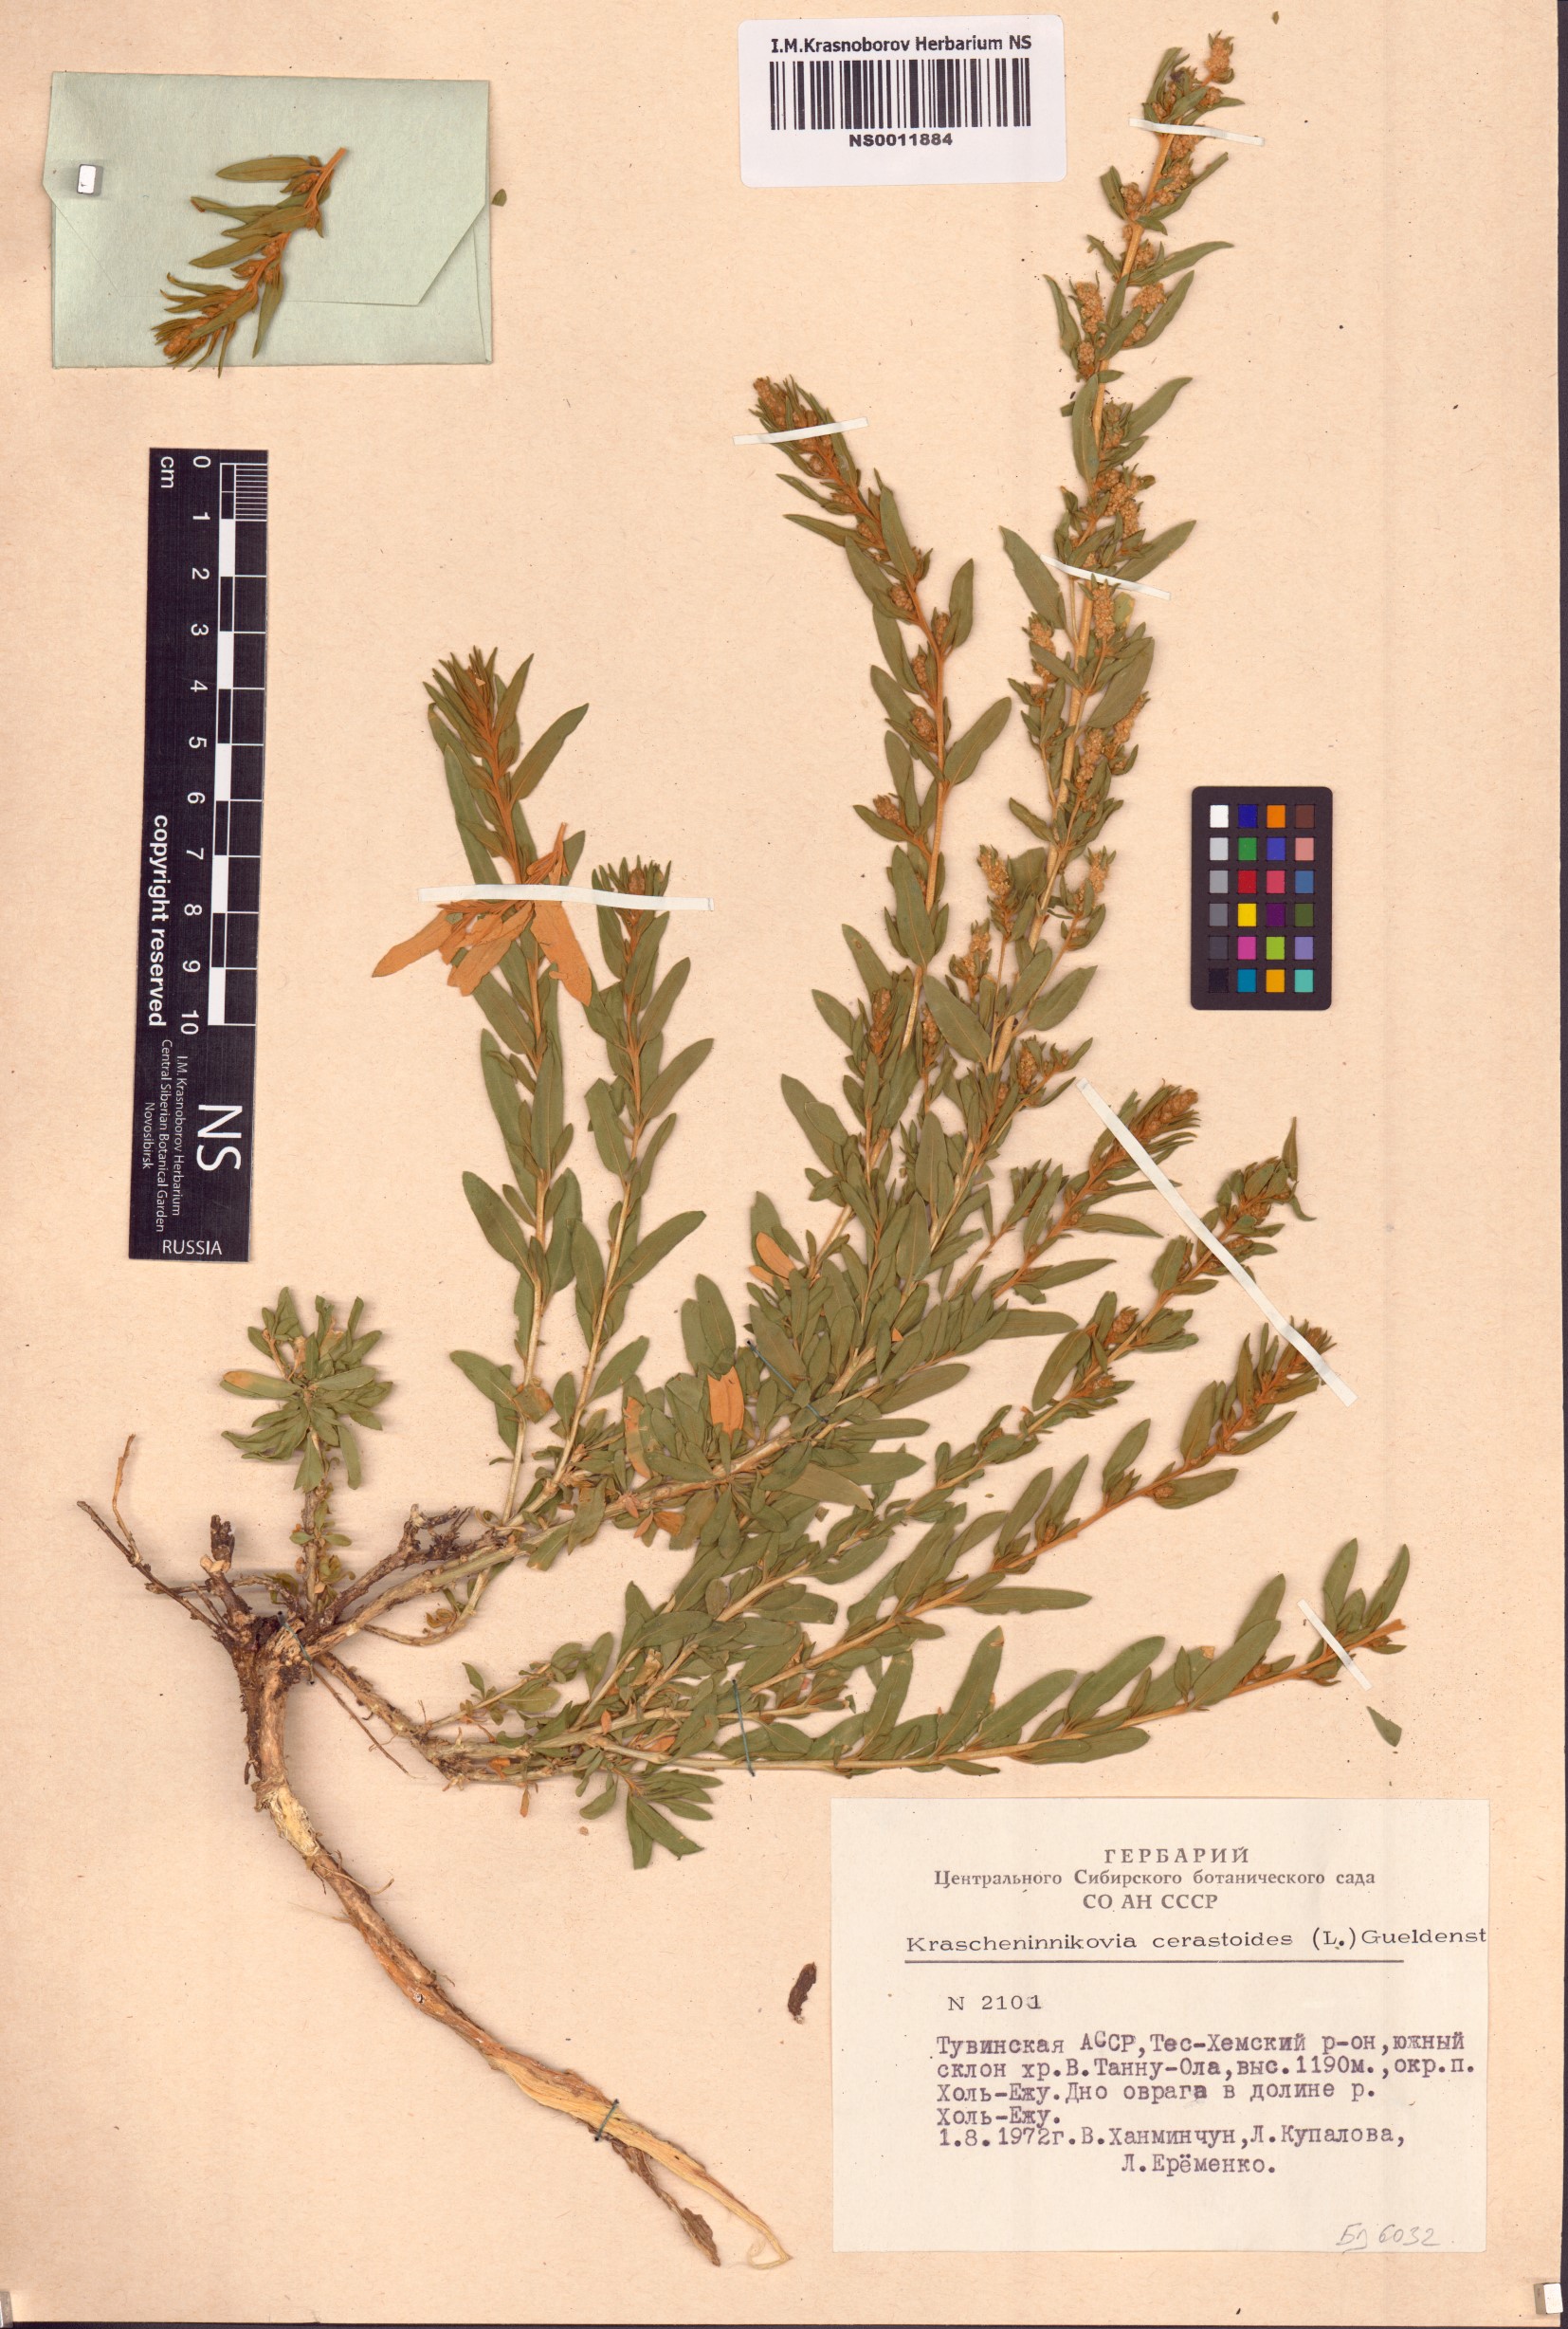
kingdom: Plantae
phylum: Tracheophyta
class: Magnoliopsida
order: Caryophyllales
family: Amaranthaceae
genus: Krascheninnikovia
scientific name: Krascheninnikovia ceratoides
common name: Pamirian winterfat
